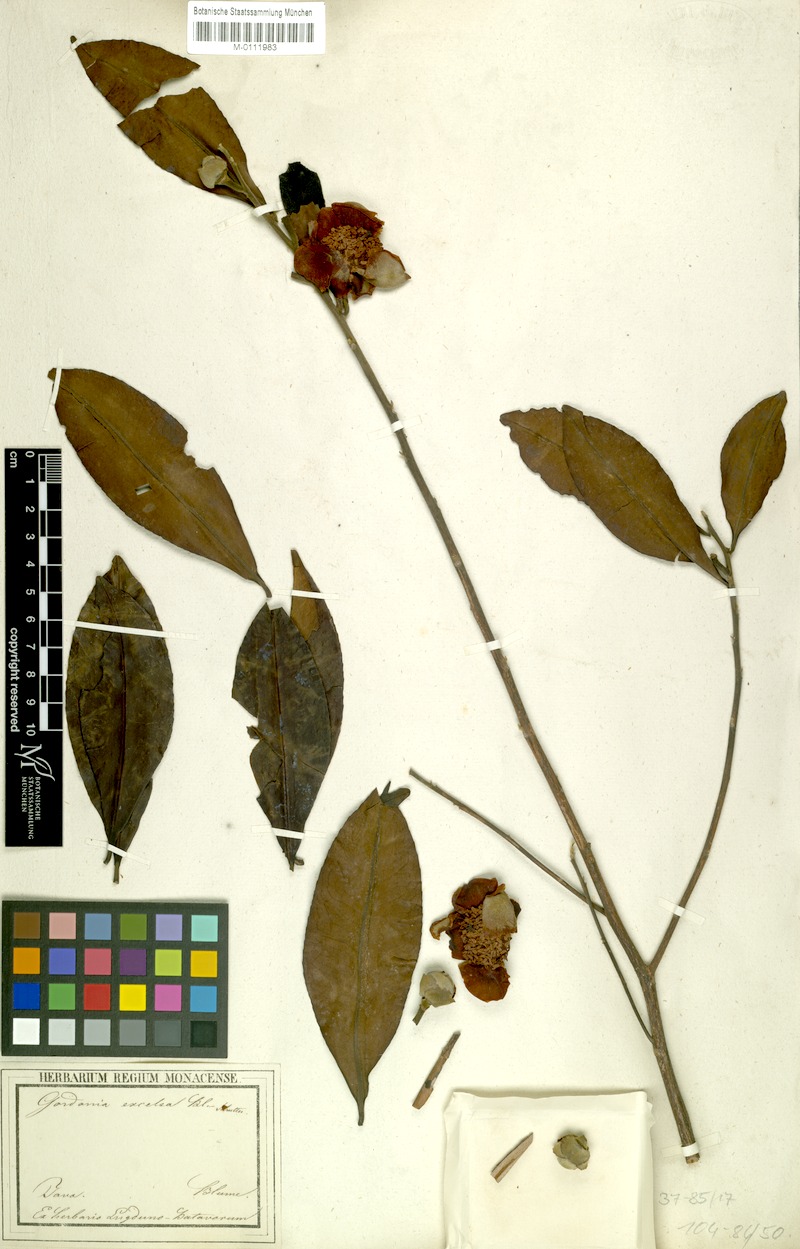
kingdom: Plantae
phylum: Tracheophyta
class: Magnoliopsida
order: Ericales
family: Theaceae
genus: Polyspora
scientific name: Polyspora excelsa
